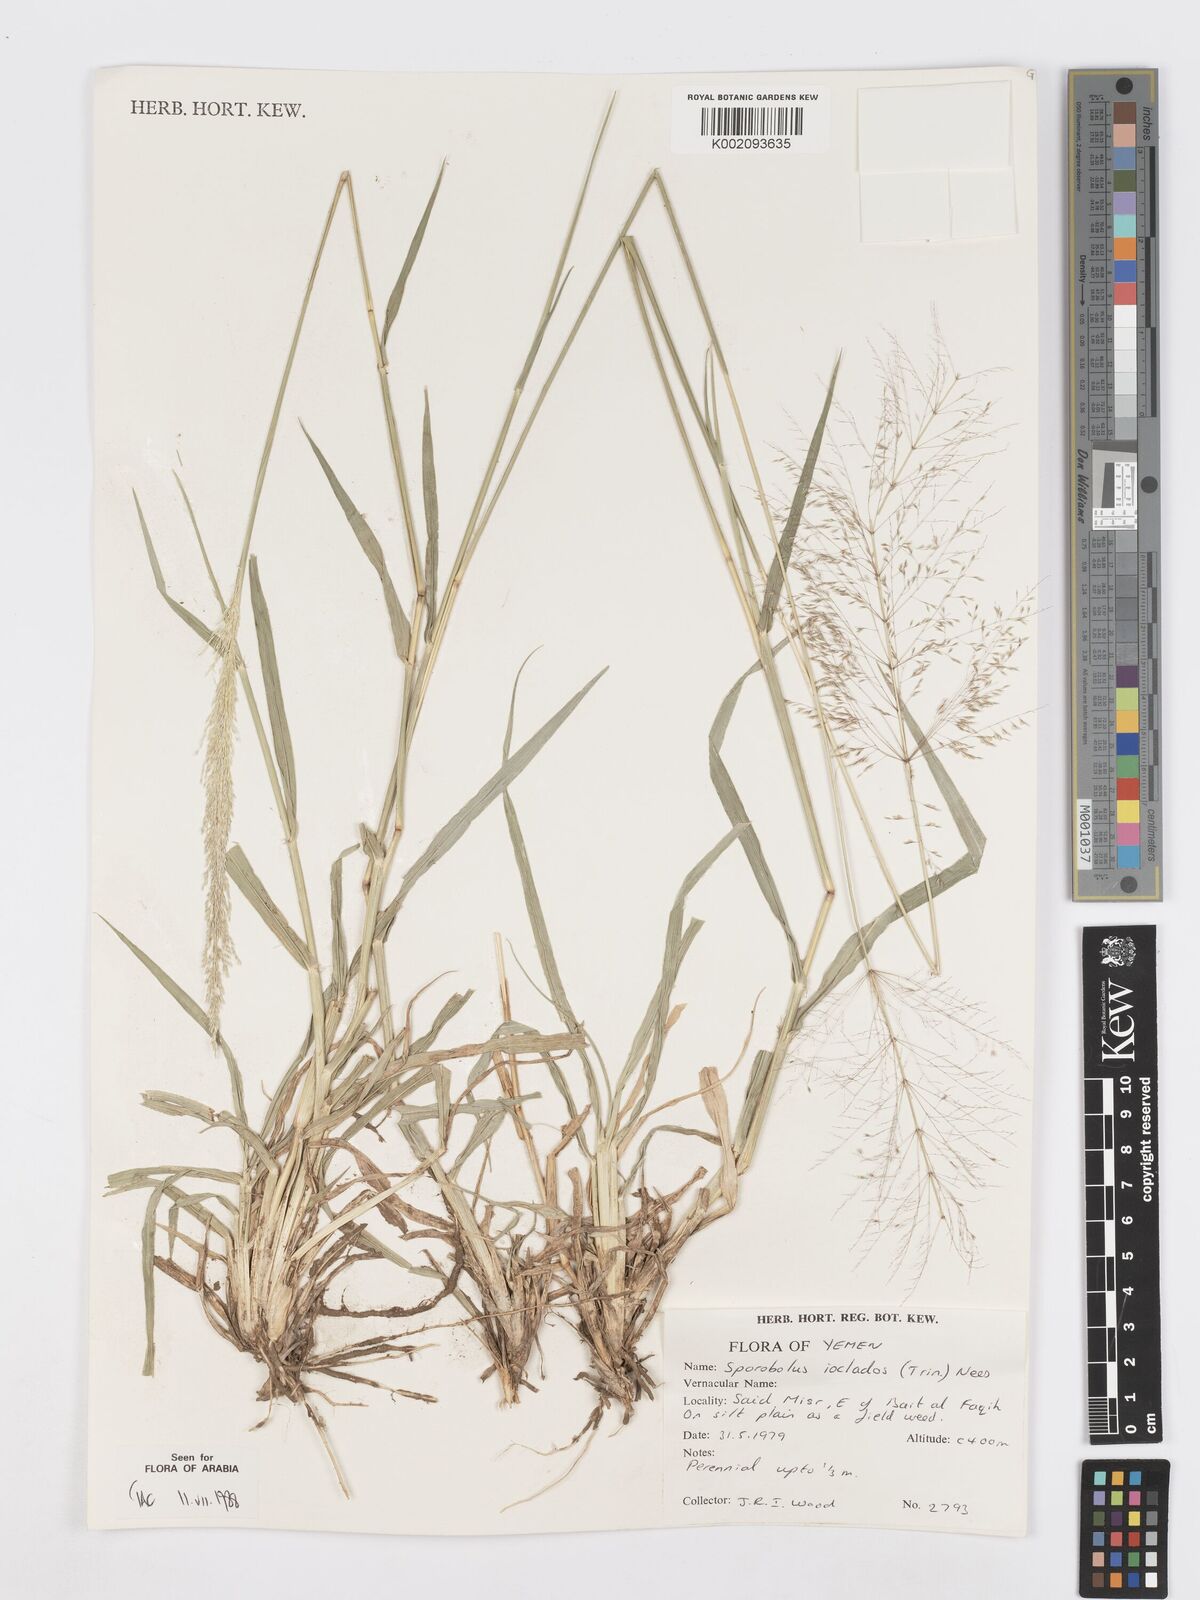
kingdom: Plantae
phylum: Tracheophyta
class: Liliopsida
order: Poales
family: Poaceae
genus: Sporobolus
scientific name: Sporobolus ioclados
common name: Pan dropseed
